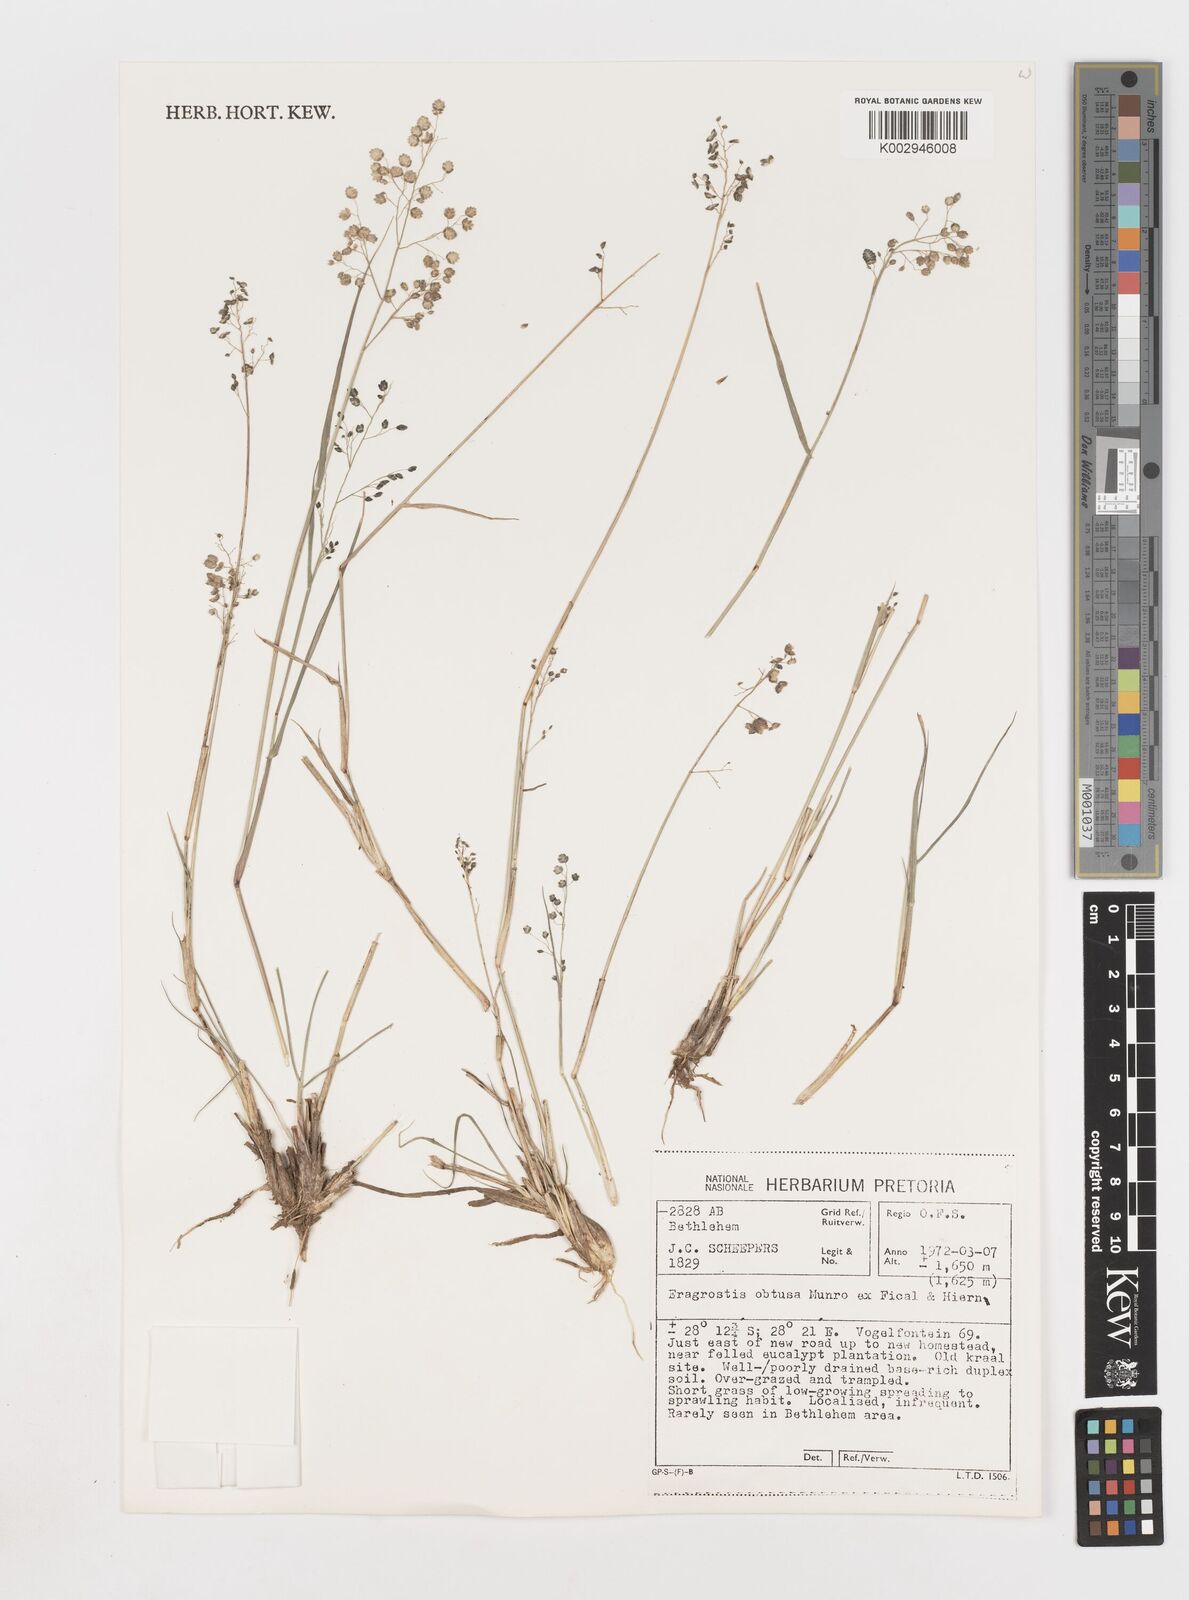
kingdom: Plantae
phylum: Tracheophyta
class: Liliopsida
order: Poales
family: Poaceae
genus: Eragrostis
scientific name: Eragrostis obtusa
